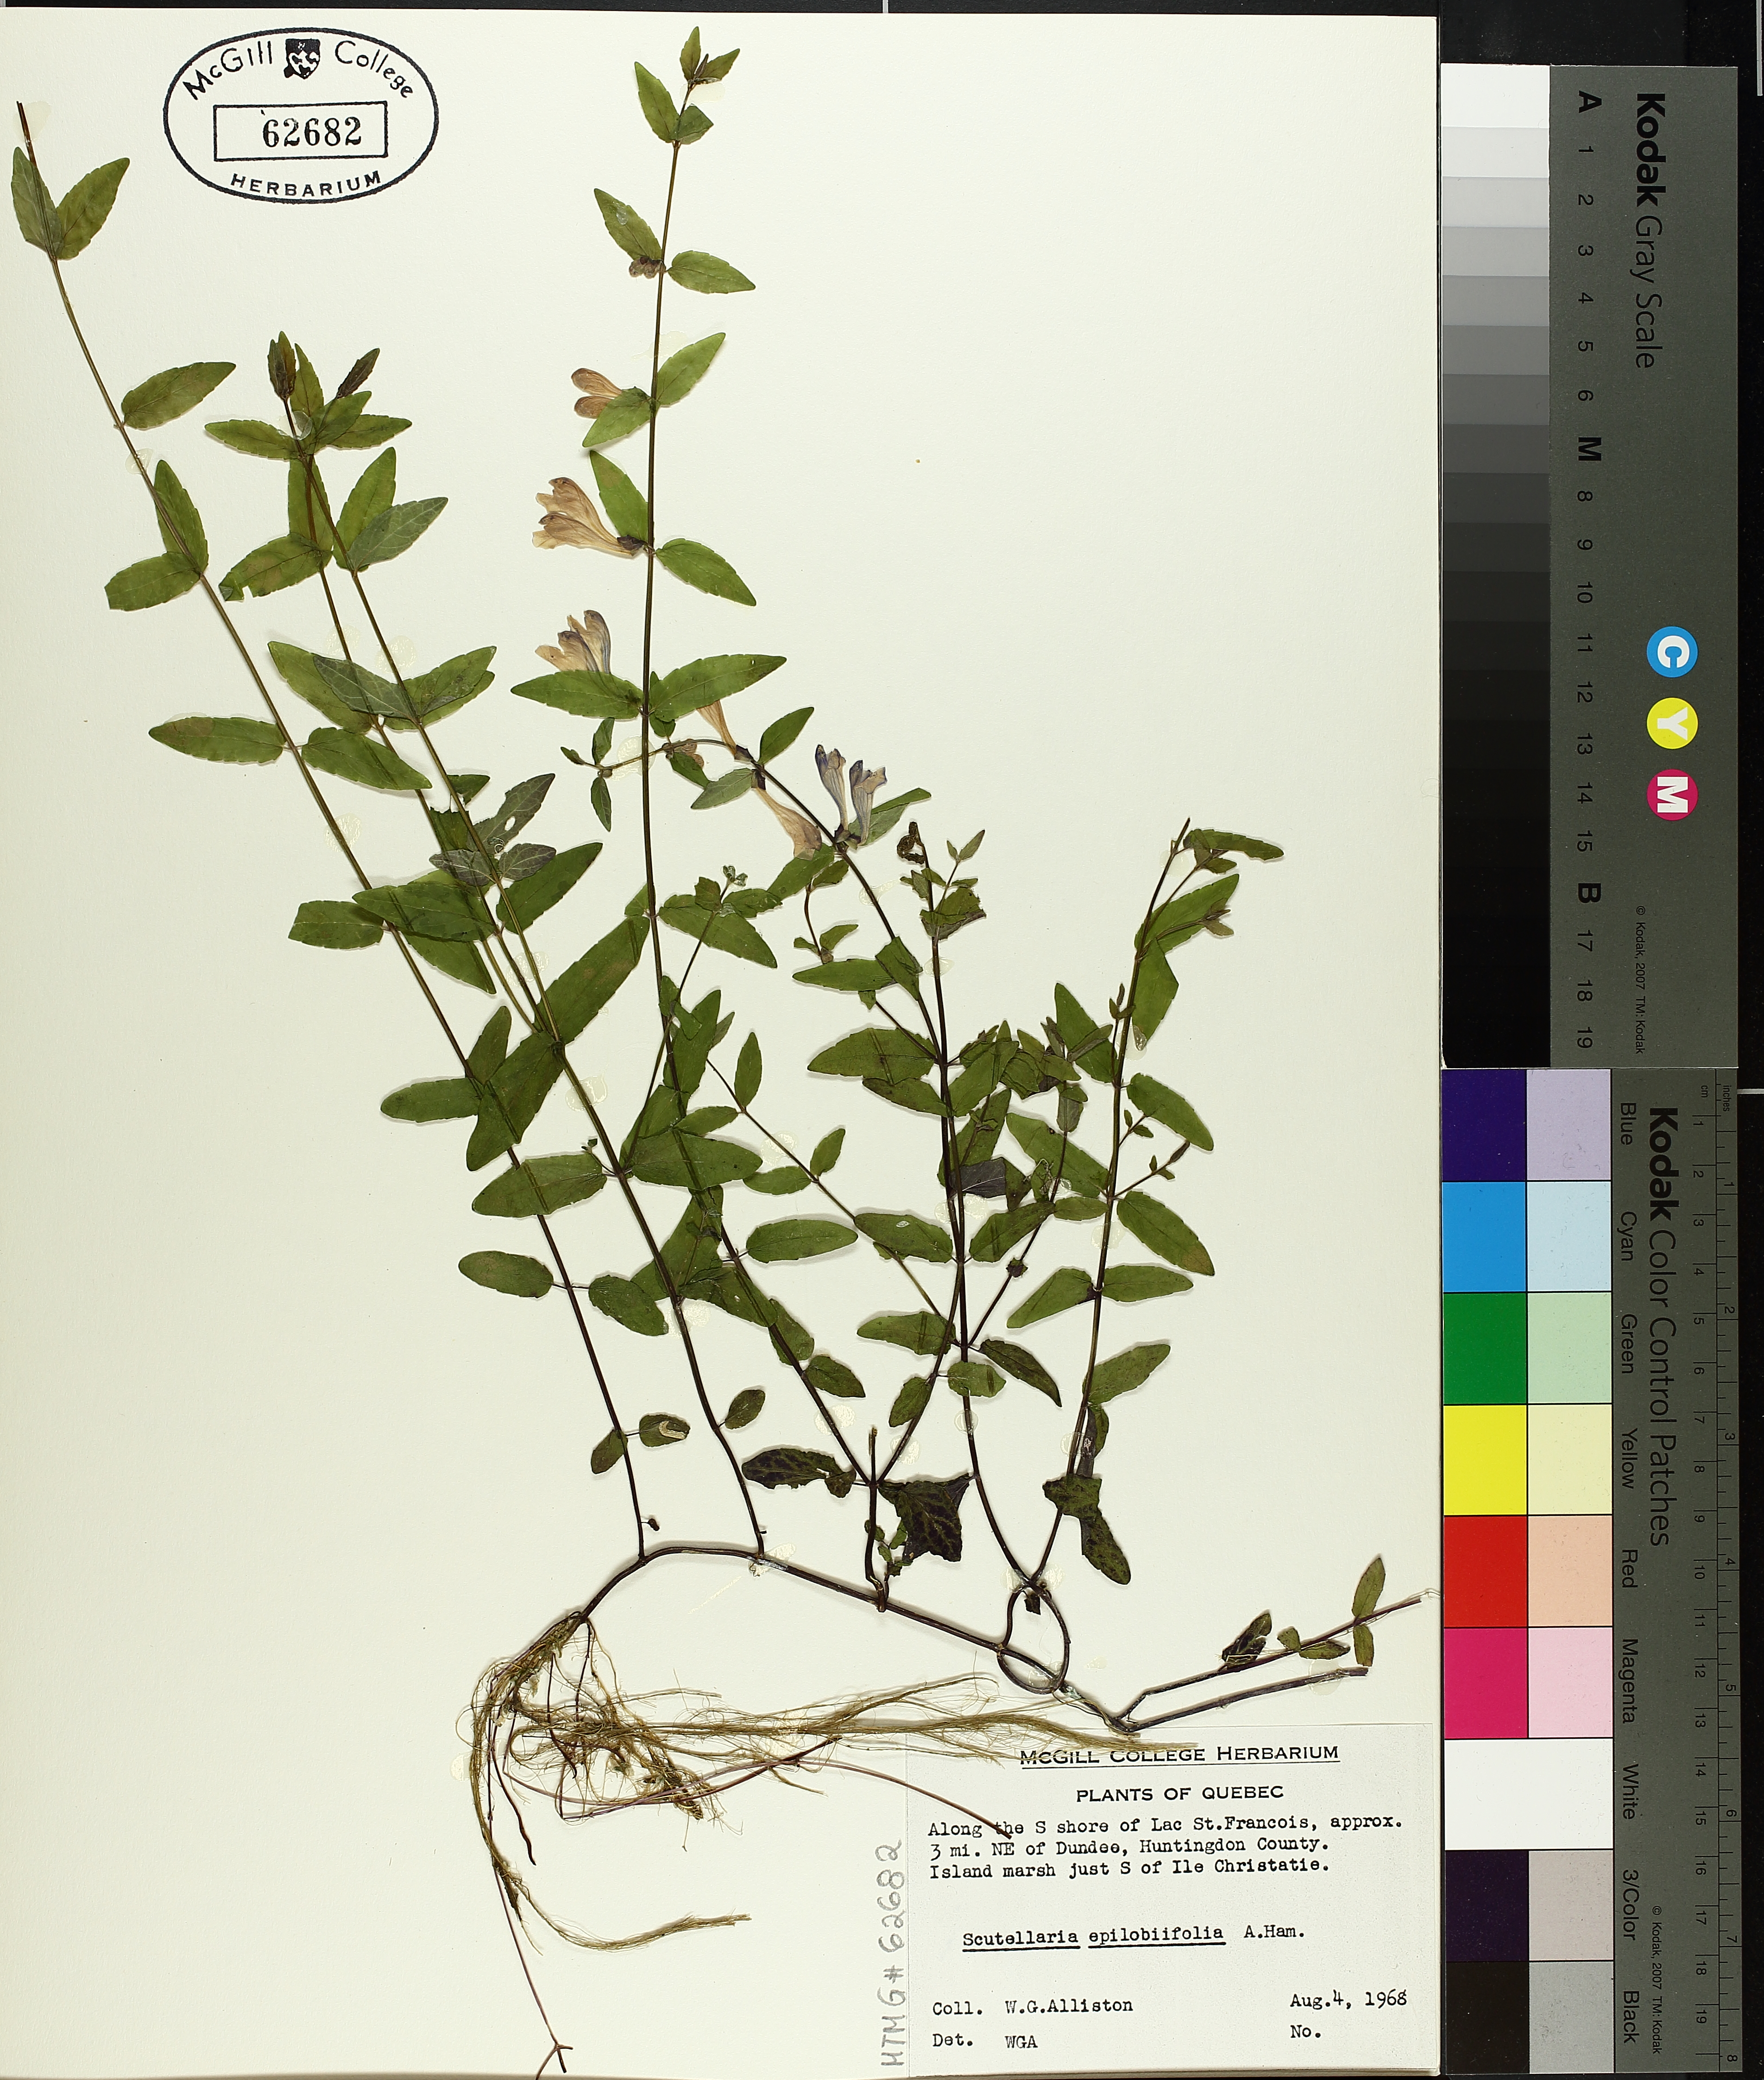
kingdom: Plantae
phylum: Tracheophyta
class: Magnoliopsida
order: Lamiales
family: Lamiaceae
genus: Scutellaria
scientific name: Scutellaria galericulata
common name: Skullcap
